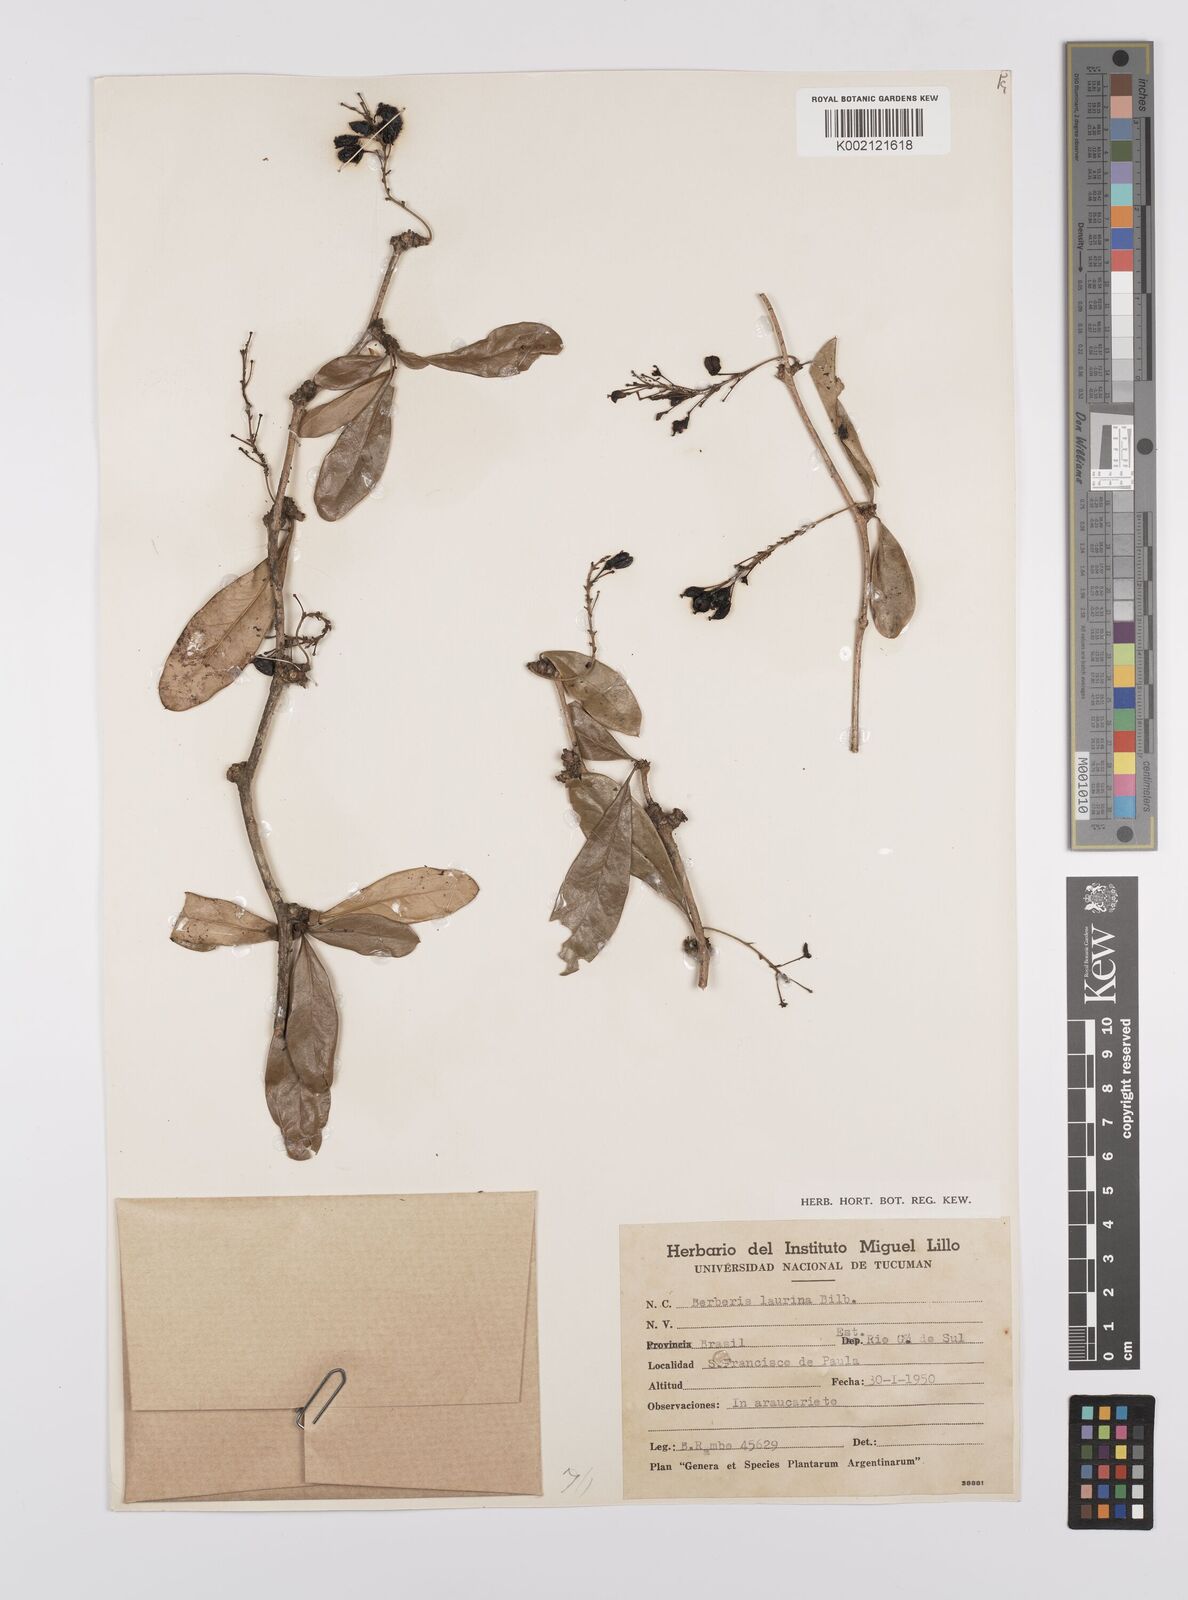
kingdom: Plantae
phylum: Tracheophyta
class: Magnoliopsida
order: Ranunculales
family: Berberidaceae
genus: Berberis
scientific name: Berberis laurina
